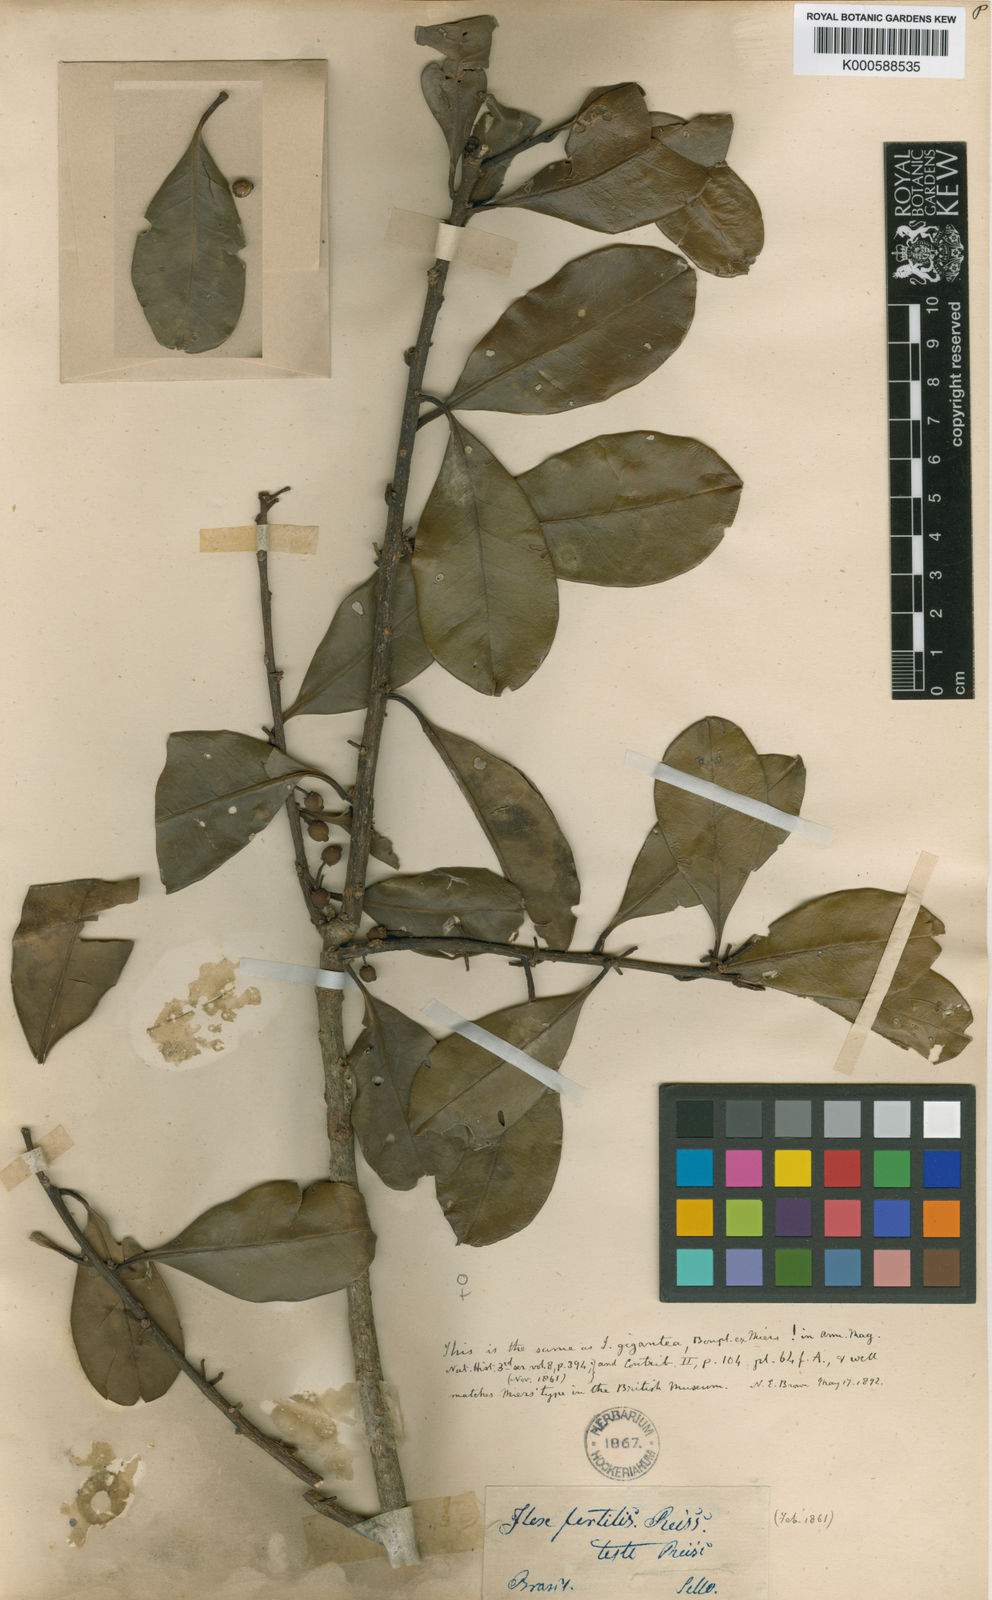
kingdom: Plantae
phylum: Tracheophyta
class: Magnoliopsida
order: Aquifoliales
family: Aquifoliaceae
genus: Ilex
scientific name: Ilex theezans
